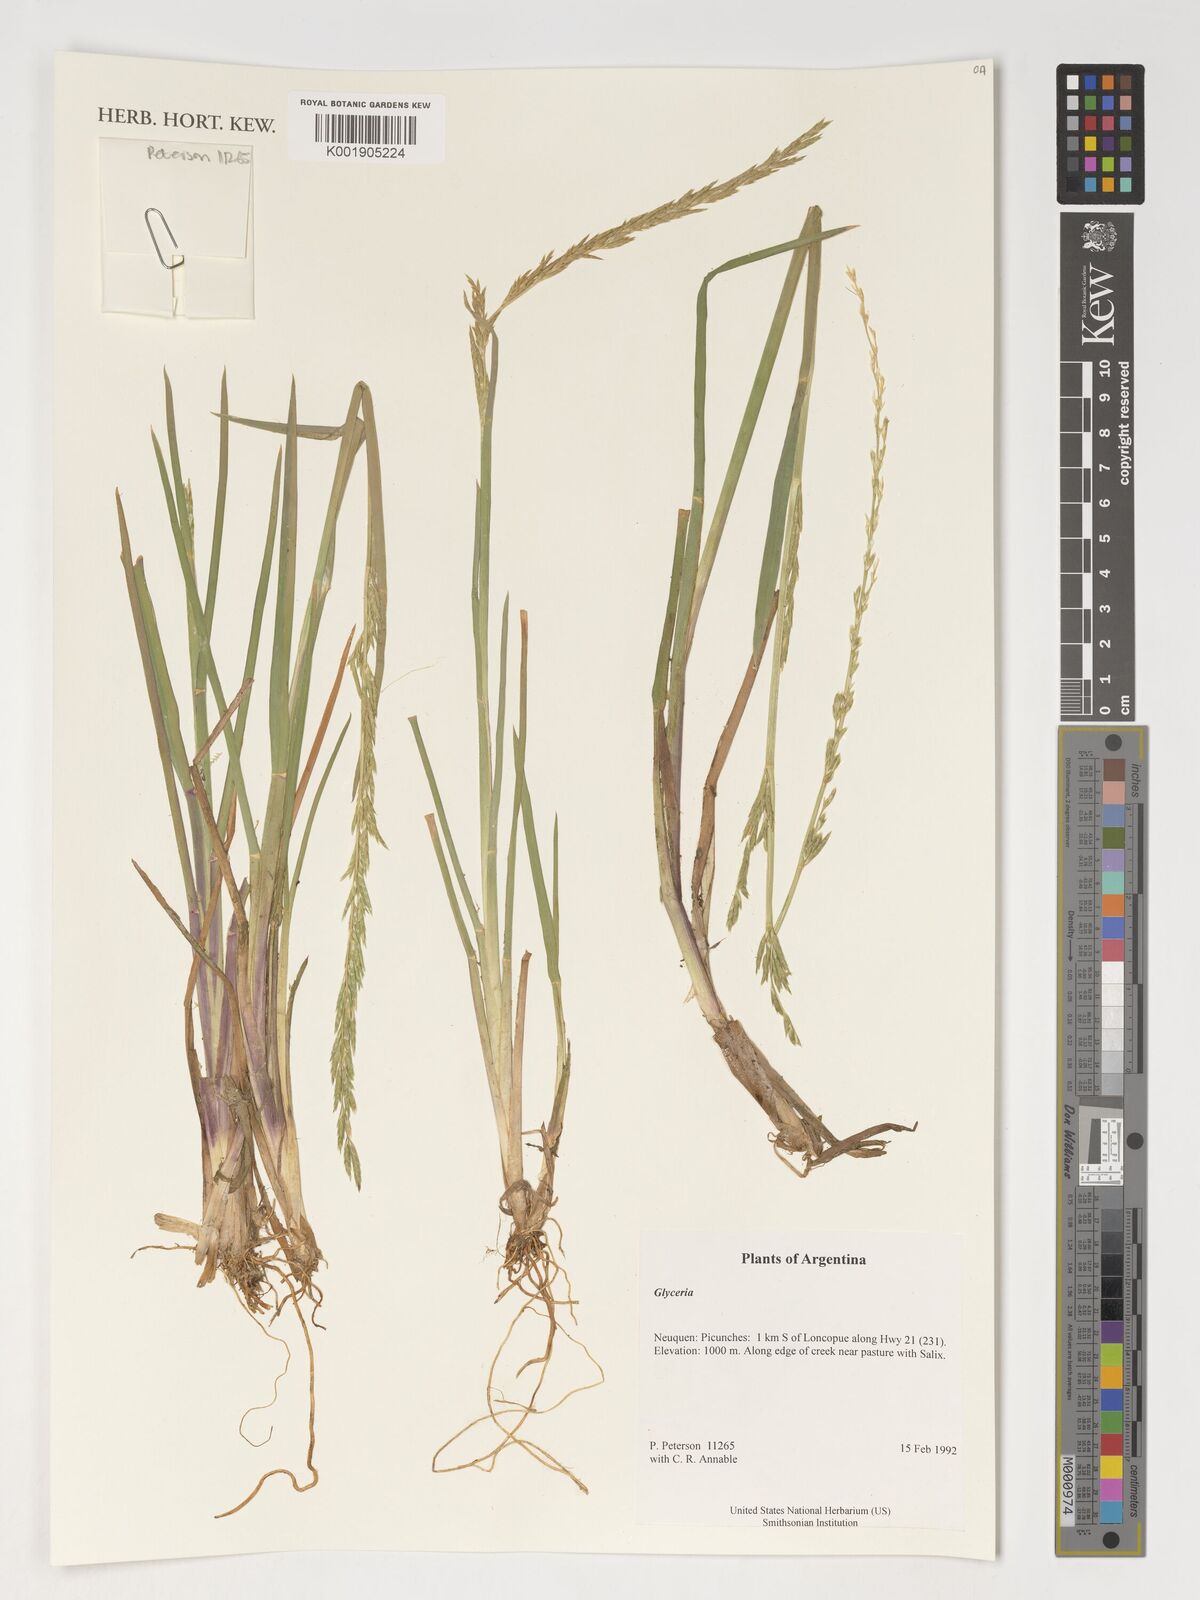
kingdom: Plantae
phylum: Tracheophyta
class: Liliopsida
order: Poales
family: Poaceae
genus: Glyceria
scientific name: Glyceria
